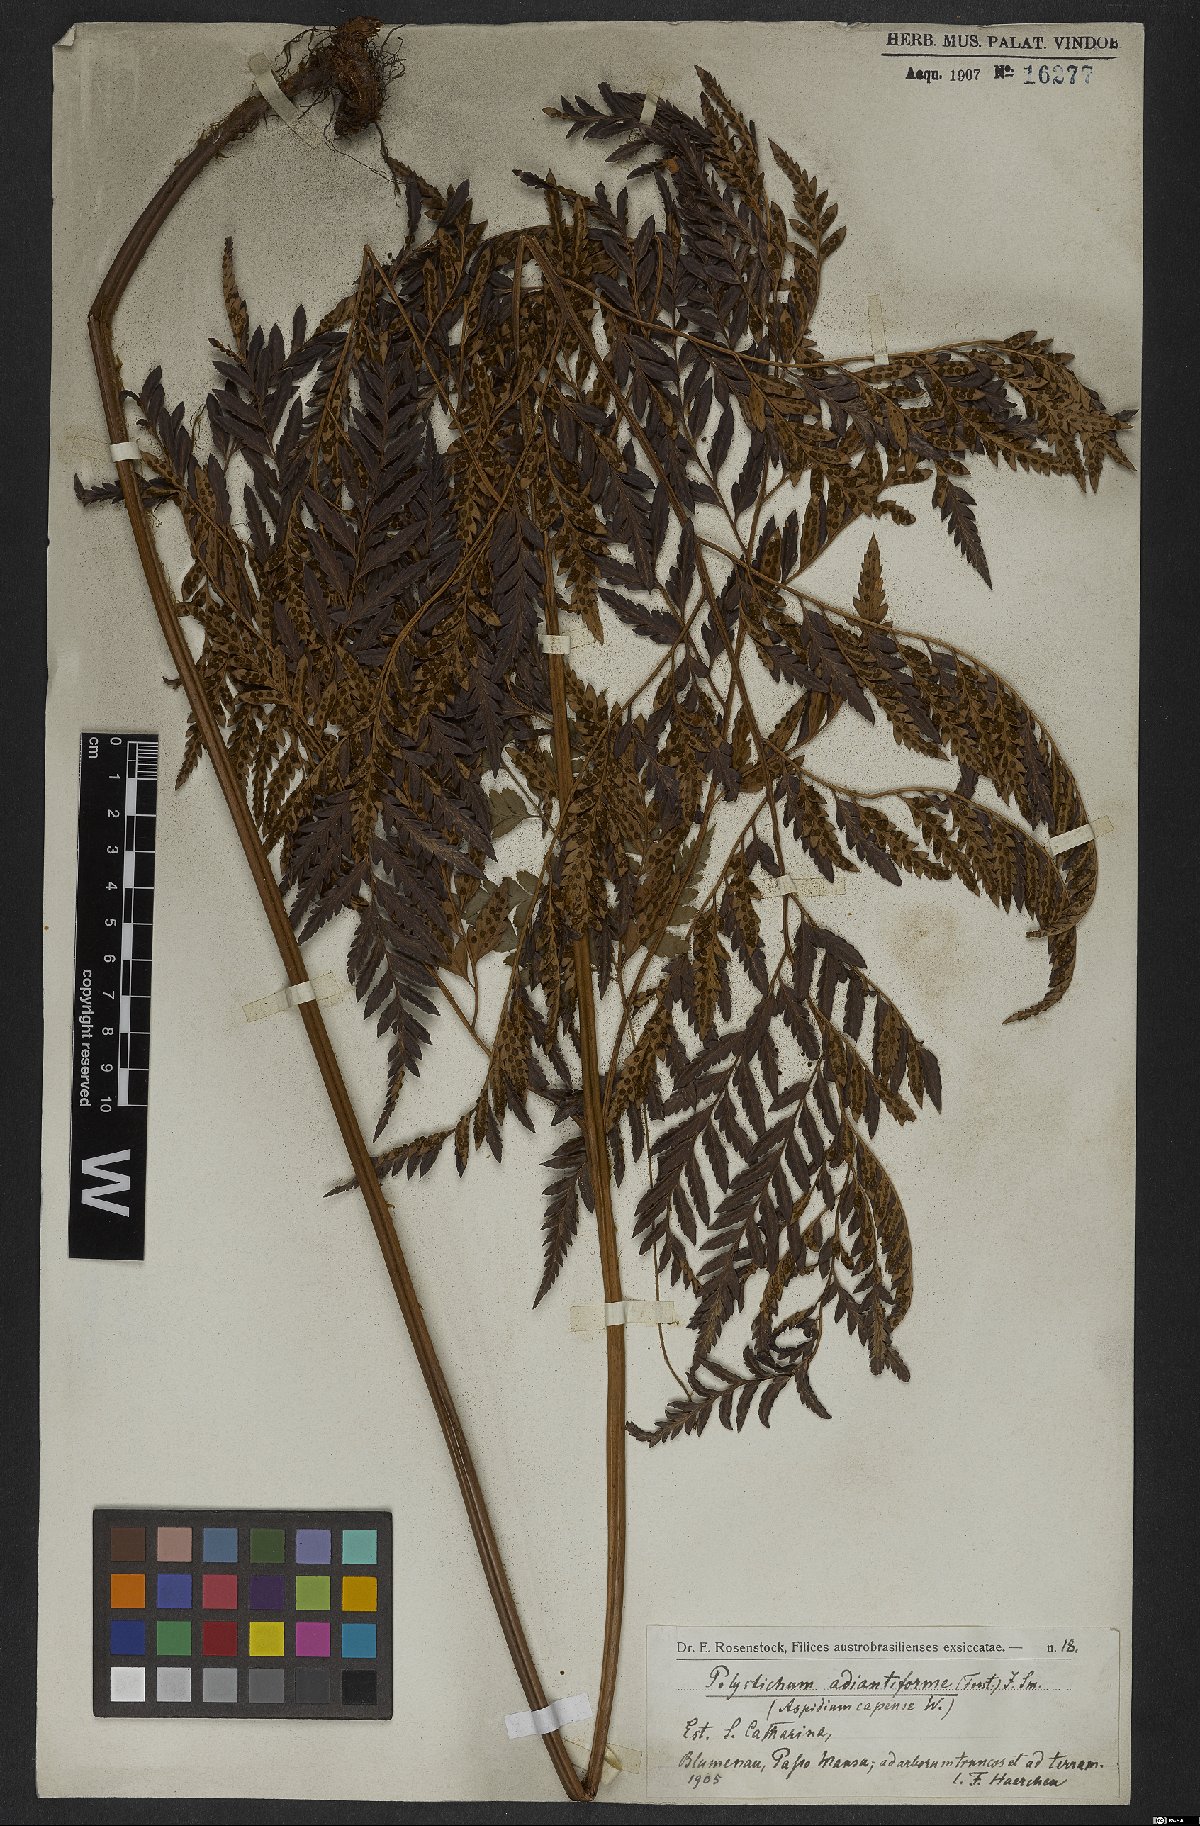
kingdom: Plantae
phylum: Tracheophyta
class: Polypodiopsida
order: Polypodiales
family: Dryopteridaceae
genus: Rumohra
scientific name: Rumohra adiantiformis
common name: Leather fern
